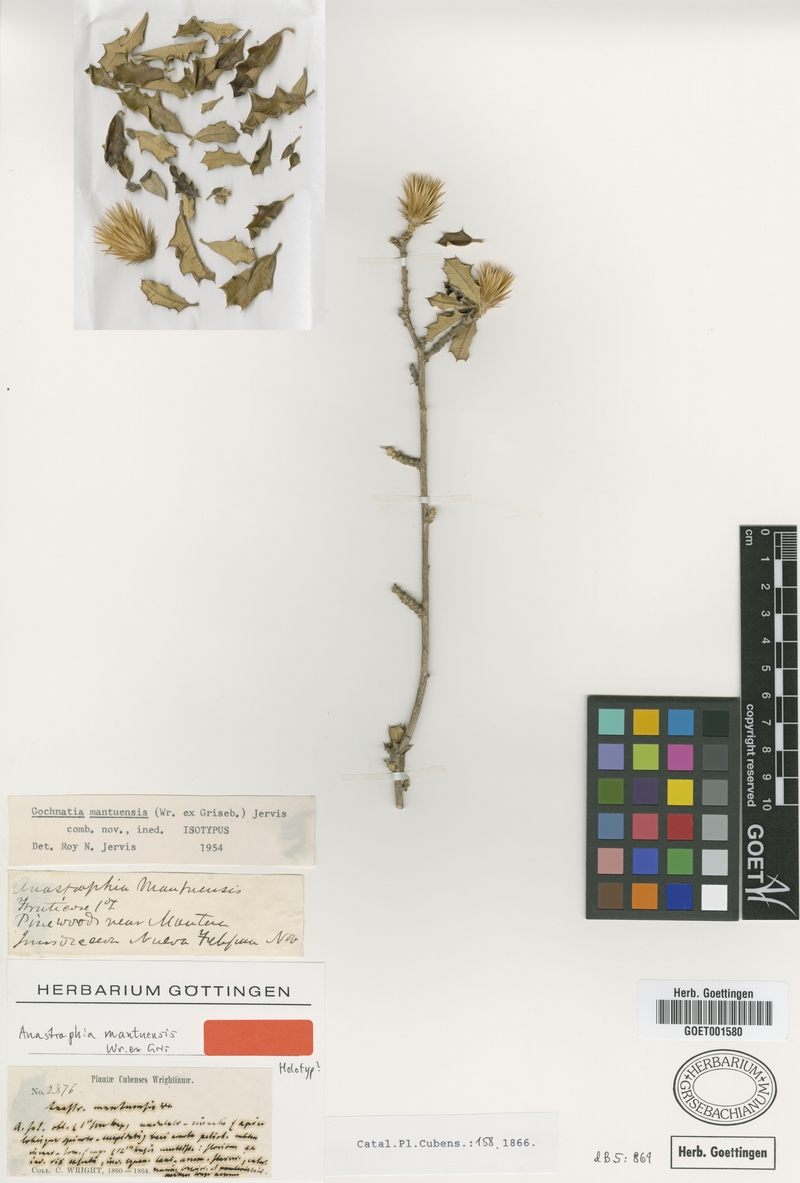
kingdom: Plantae
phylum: Tracheophyta
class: Magnoliopsida
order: Asterales
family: Asteraceae
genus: Anastraphia
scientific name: Anastraphia mantuensis
